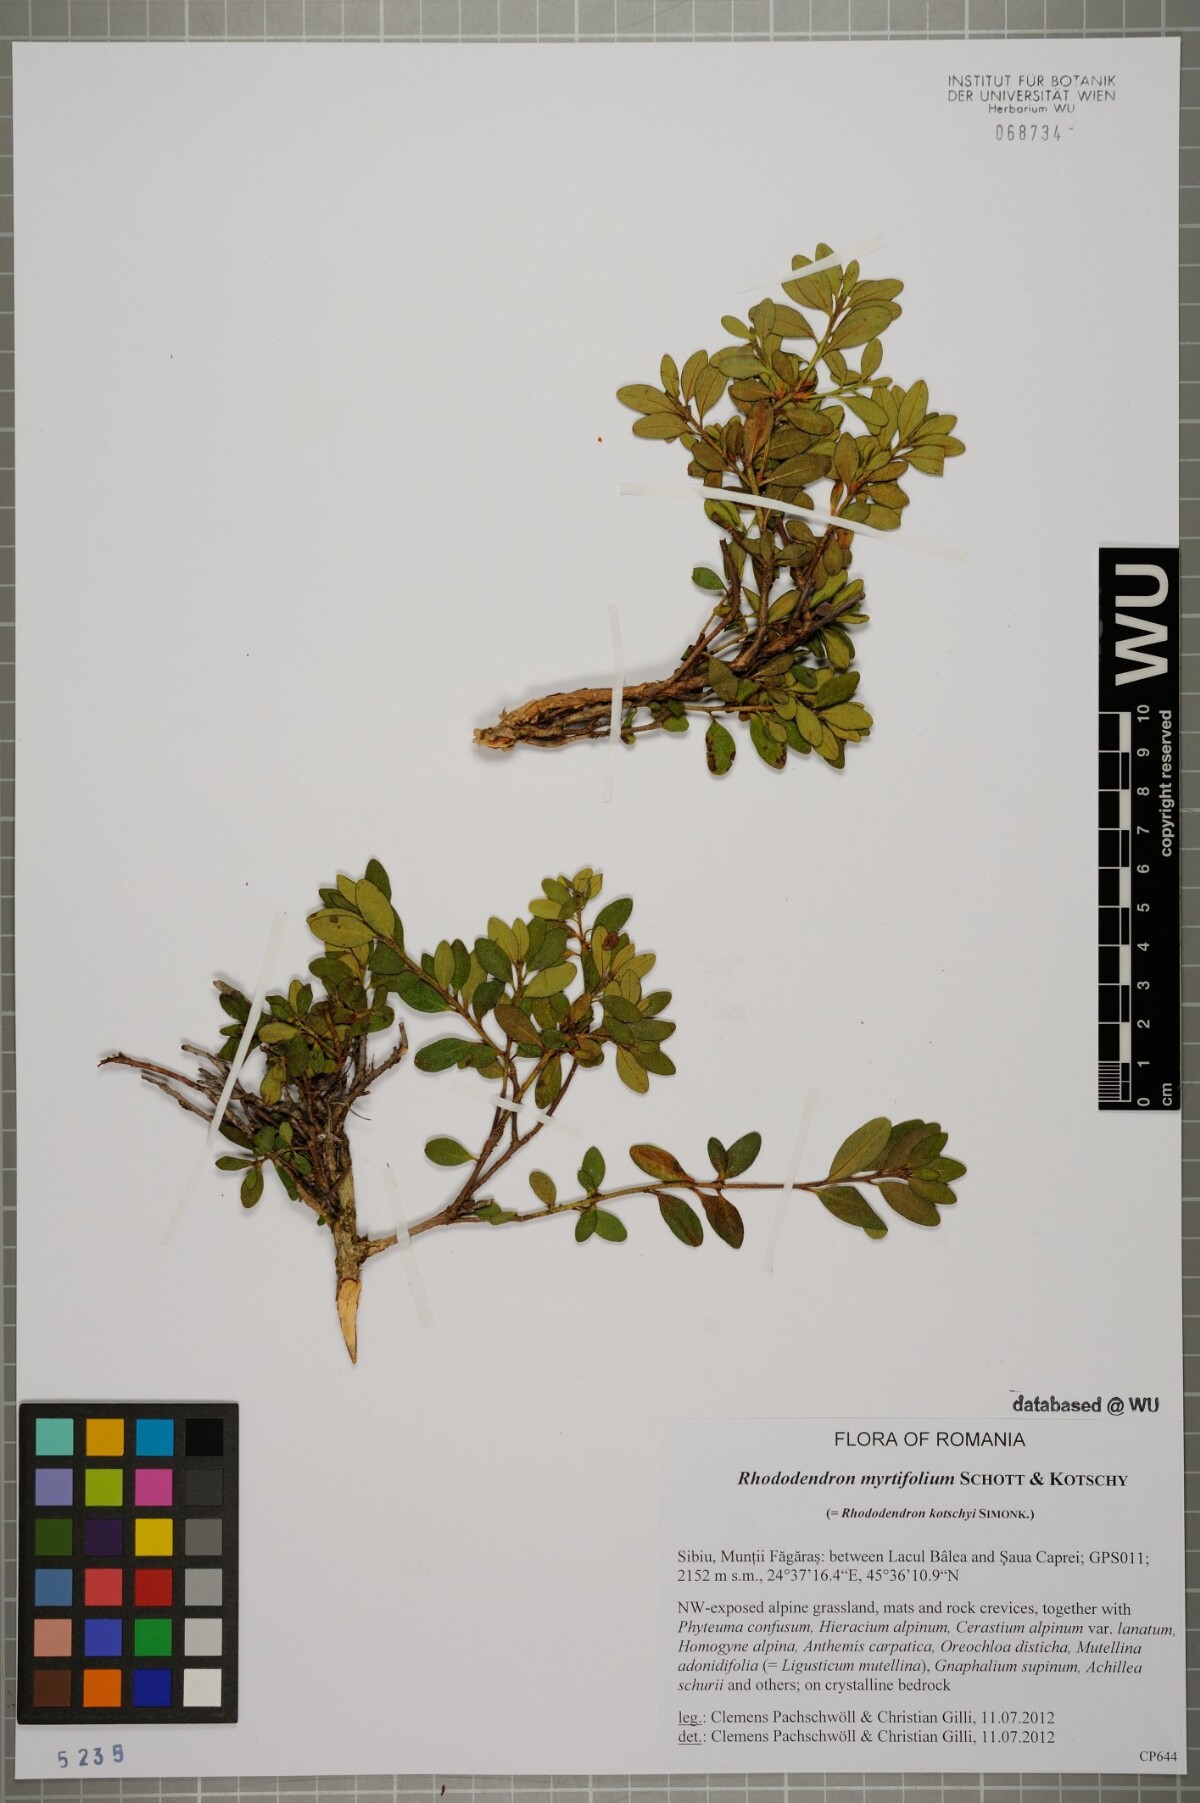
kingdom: Plantae
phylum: Tracheophyta
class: Magnoliopsida
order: Ericales
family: Ericaceae
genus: Rhododendron
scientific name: Rhododendron ponticum
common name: Rhododendron
